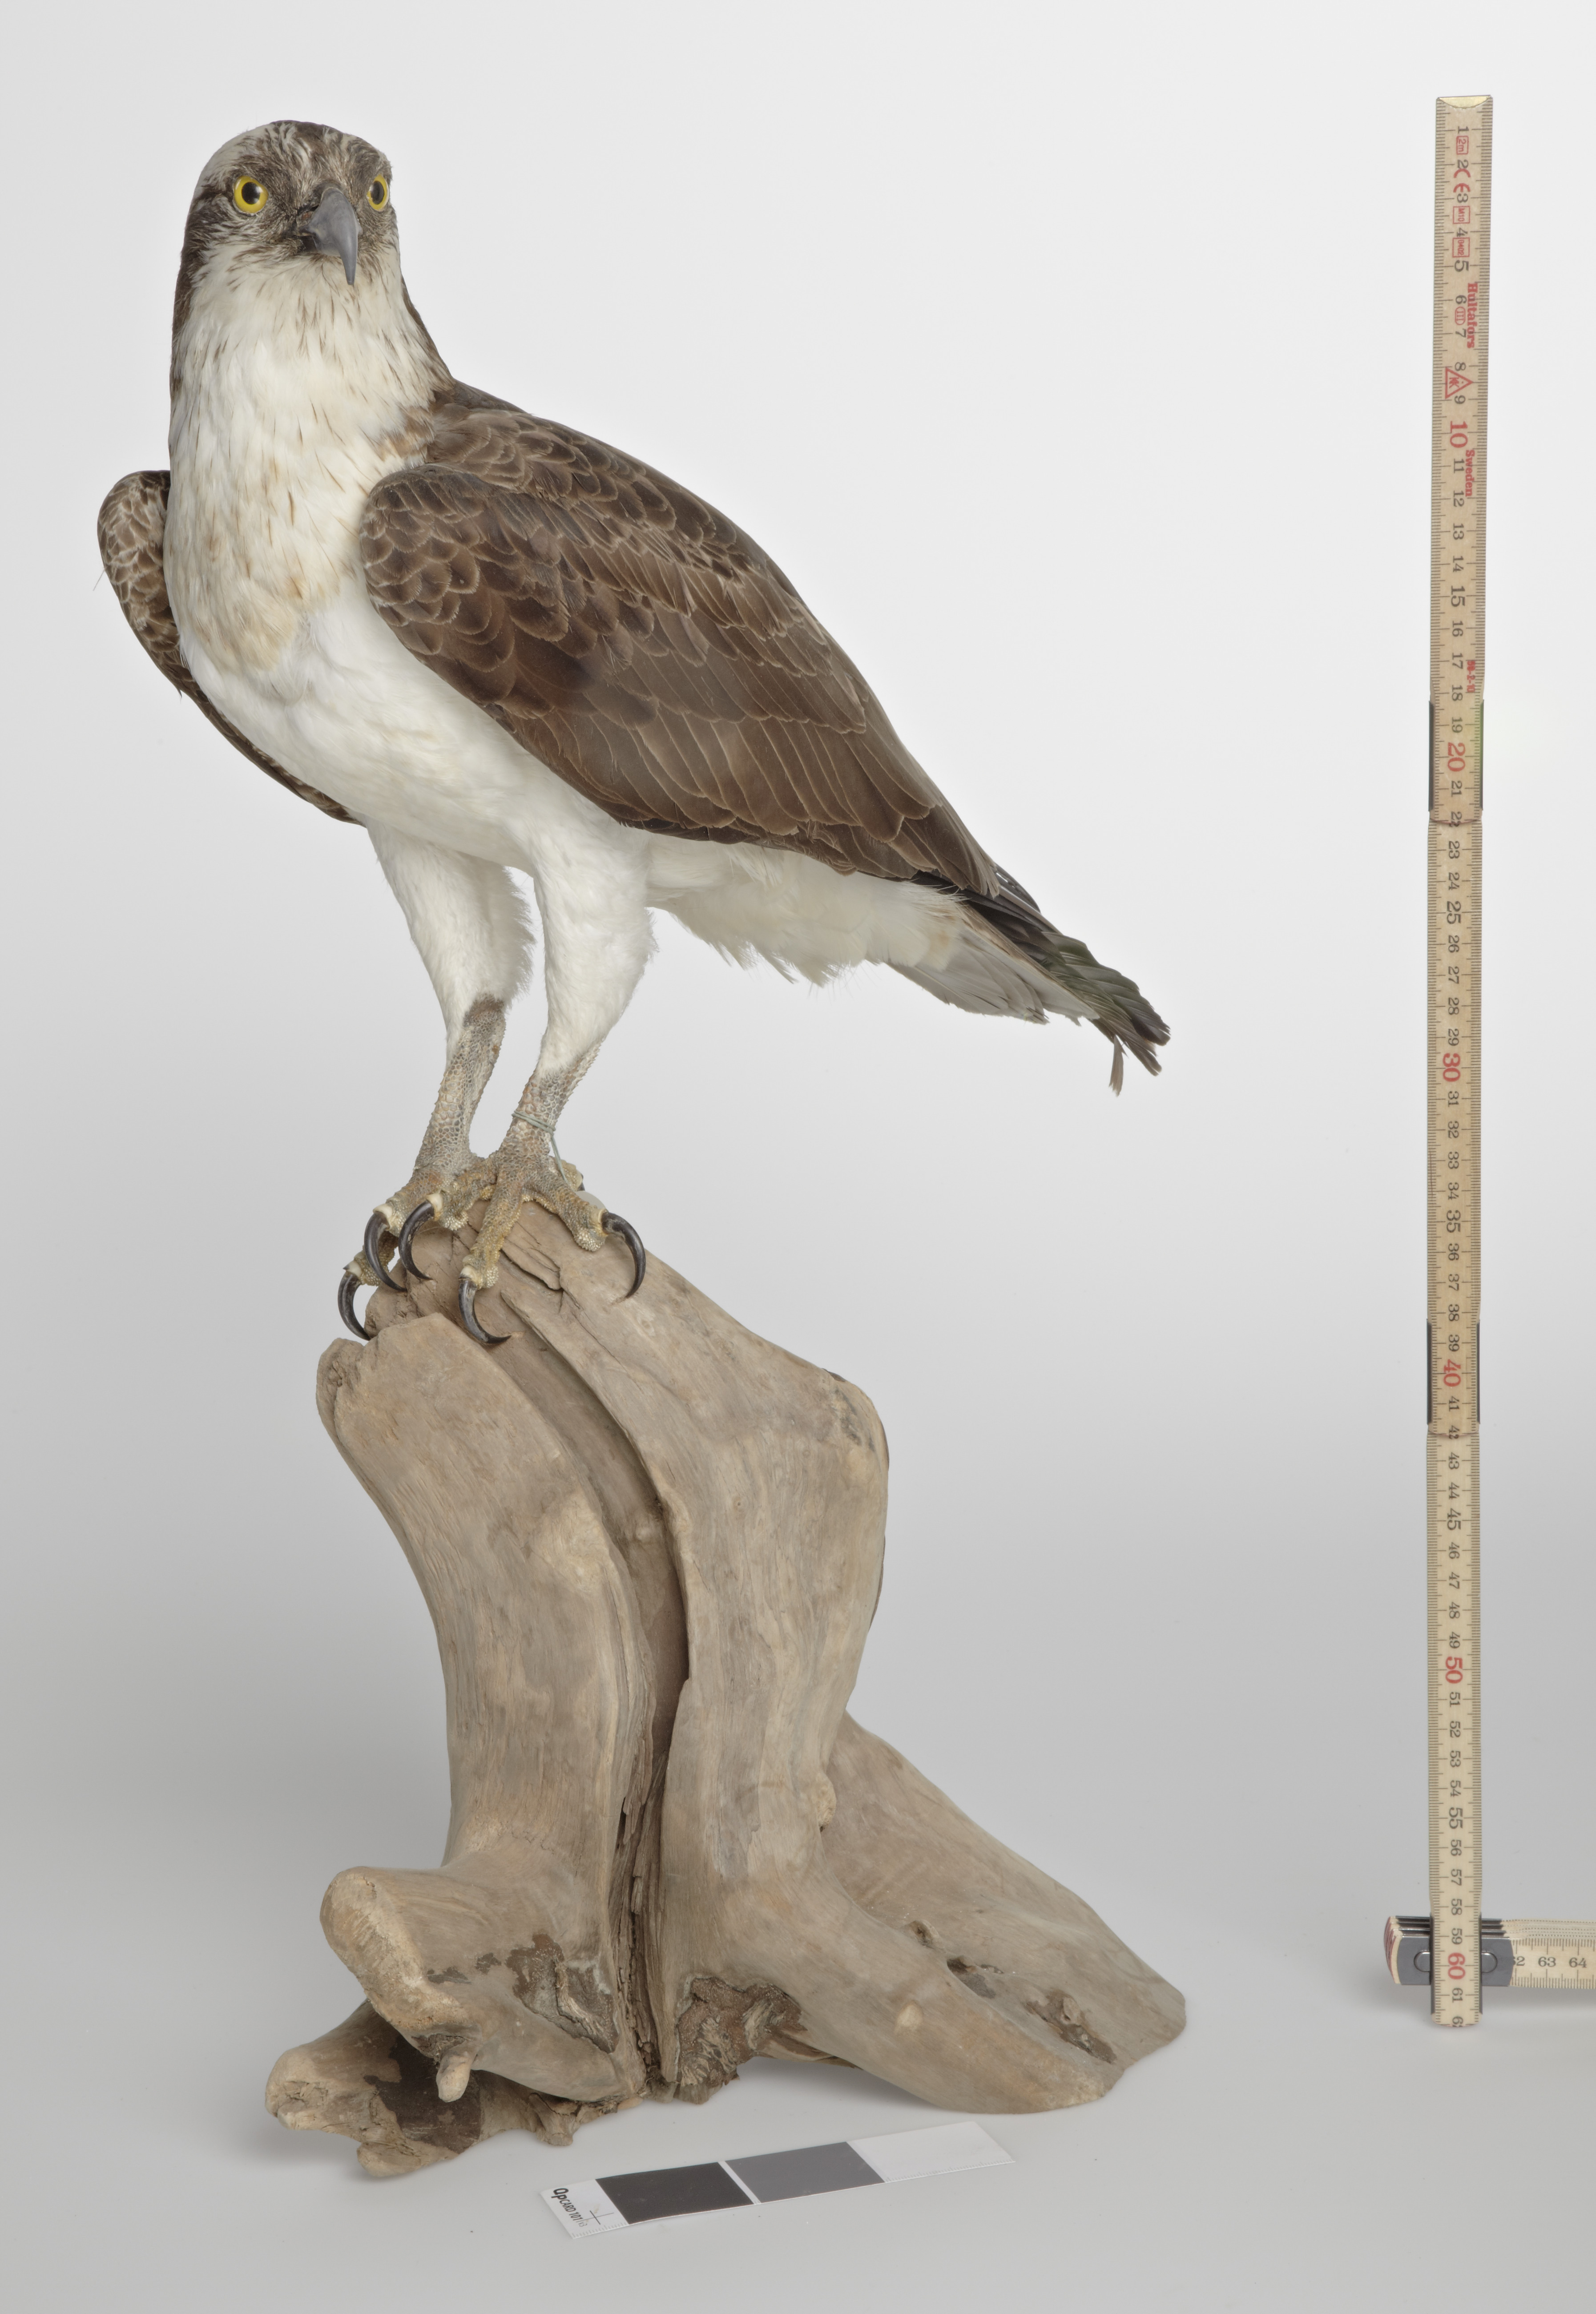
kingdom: Animalia
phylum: Chordata
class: Aves
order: Accipitriformes
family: Pandionidae
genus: Pandion
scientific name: Pandion haliaetus
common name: Osprey
